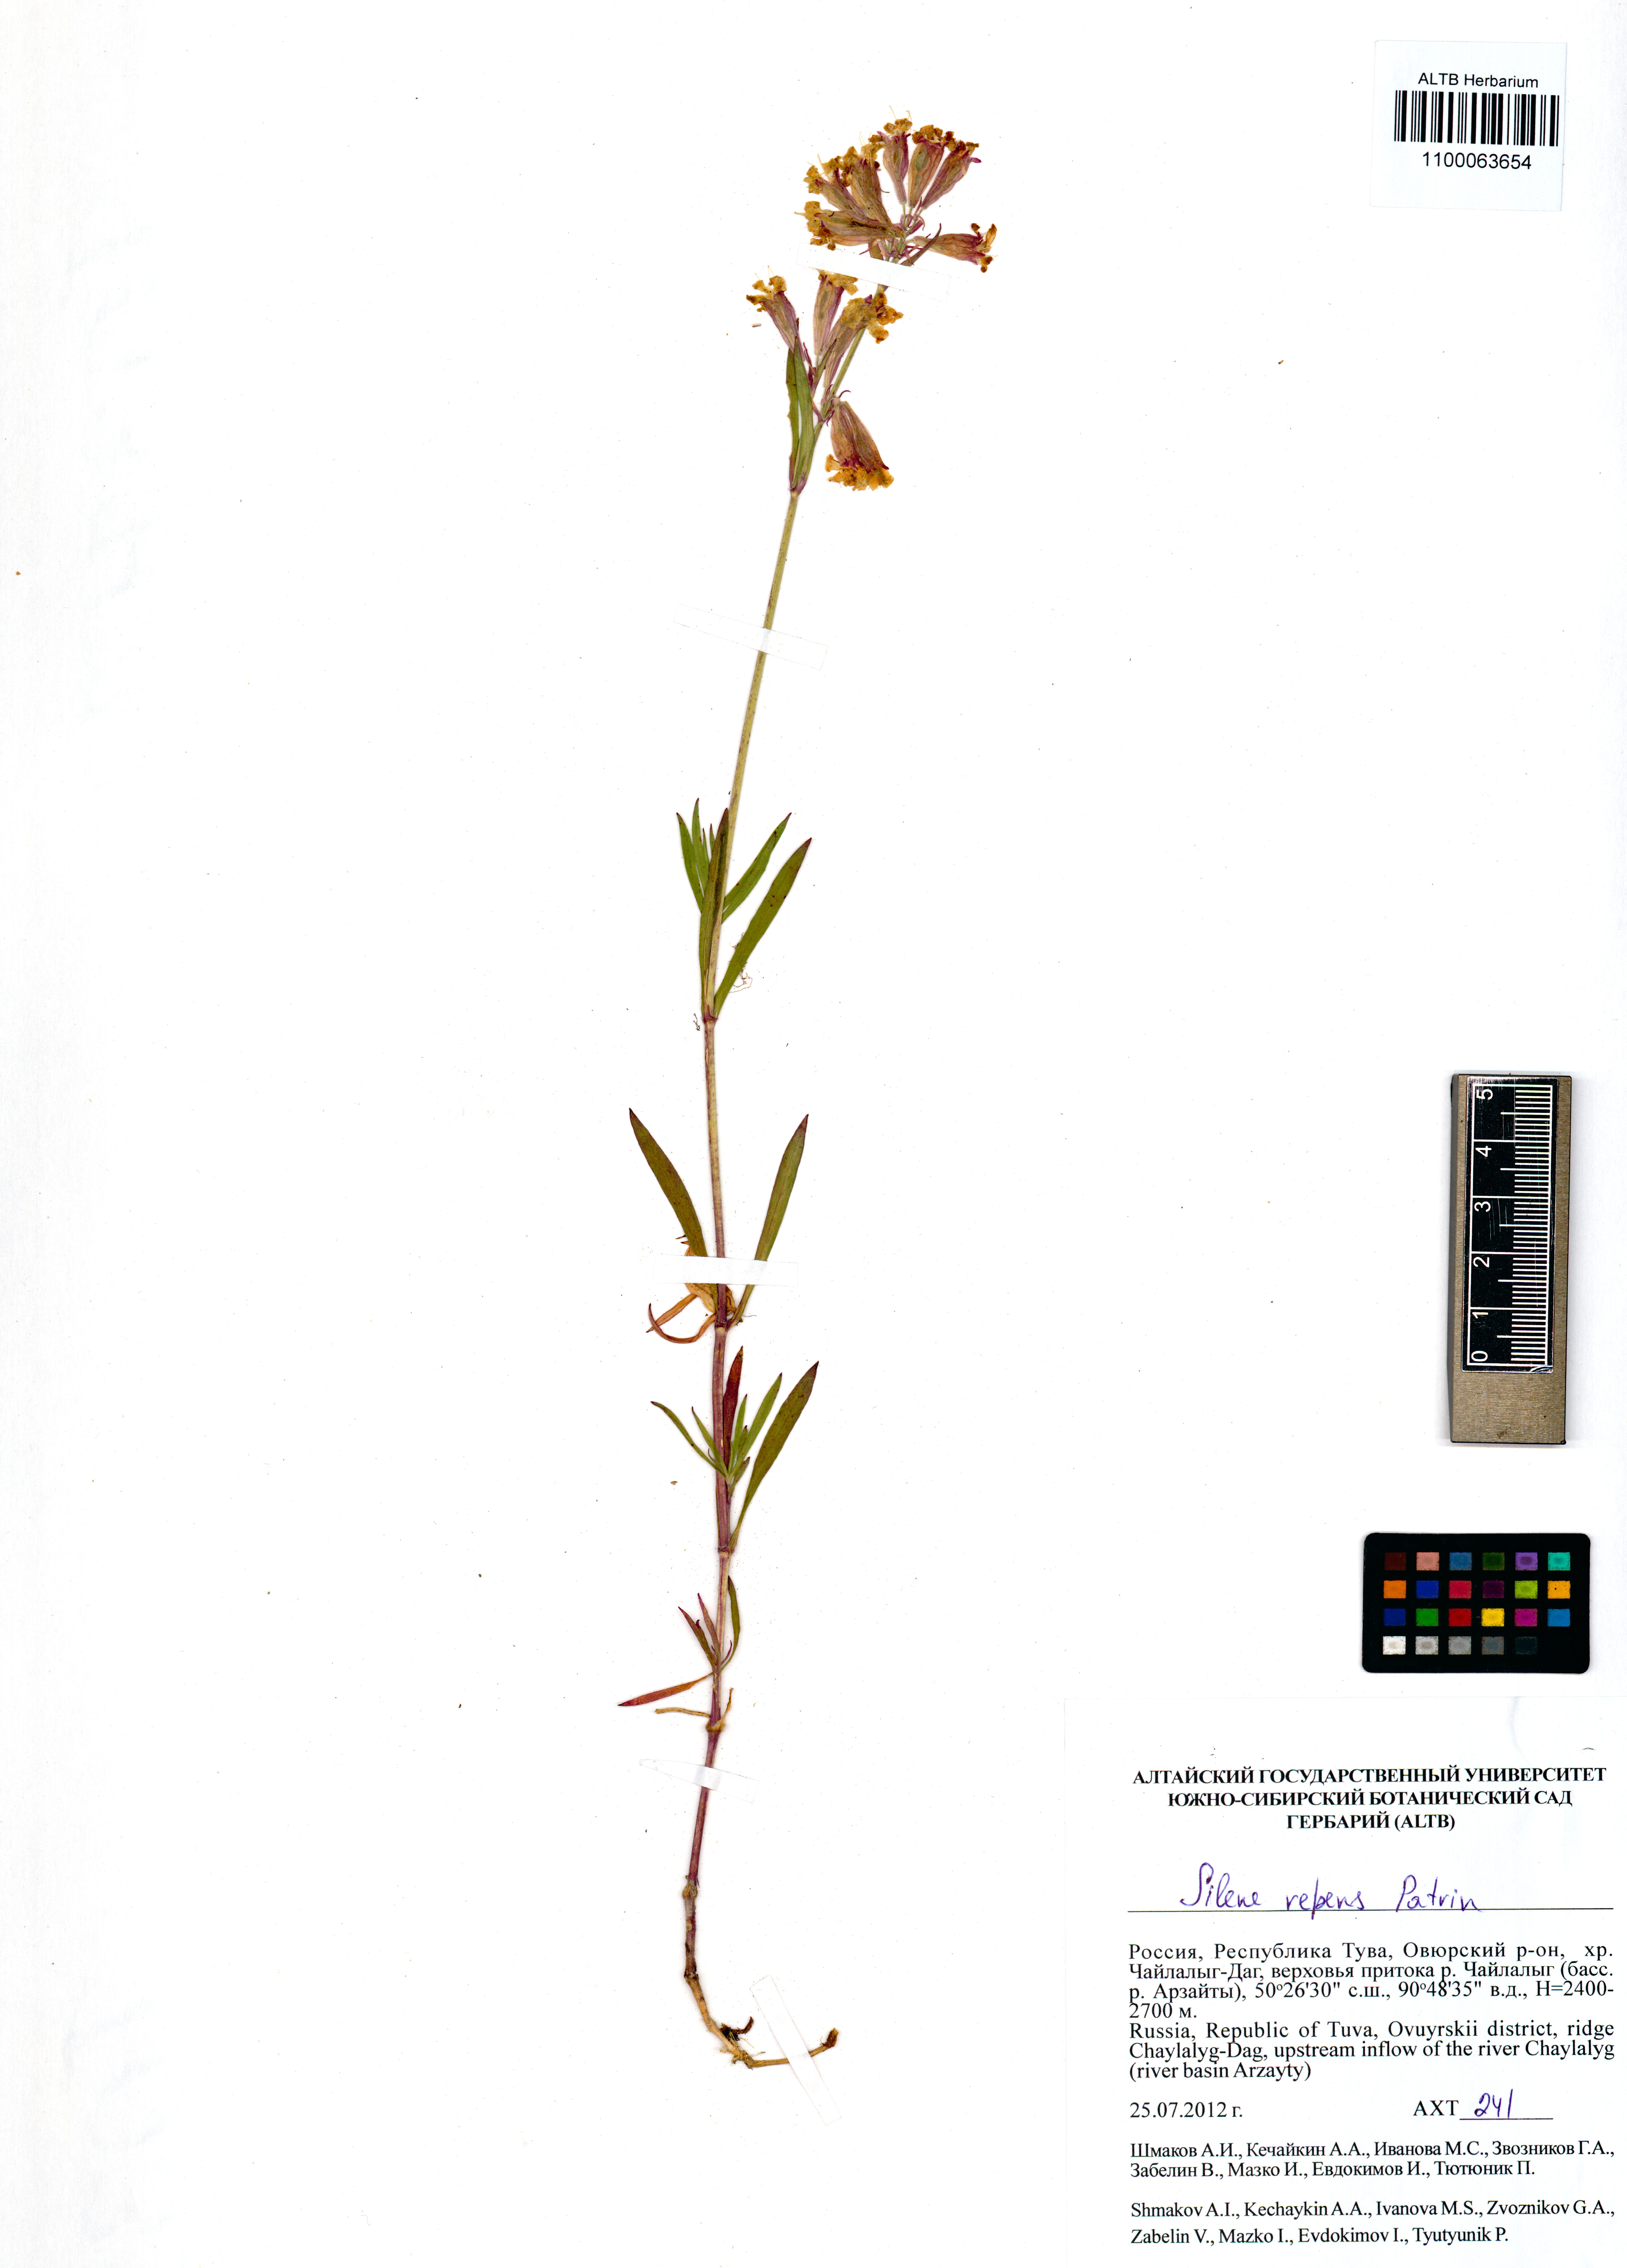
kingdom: Plantae
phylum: Tracheophyta
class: Magnoliopsida
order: Caryophyllales
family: Caryophyllaceae
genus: Silene
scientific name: Silene repens
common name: Pink campion
